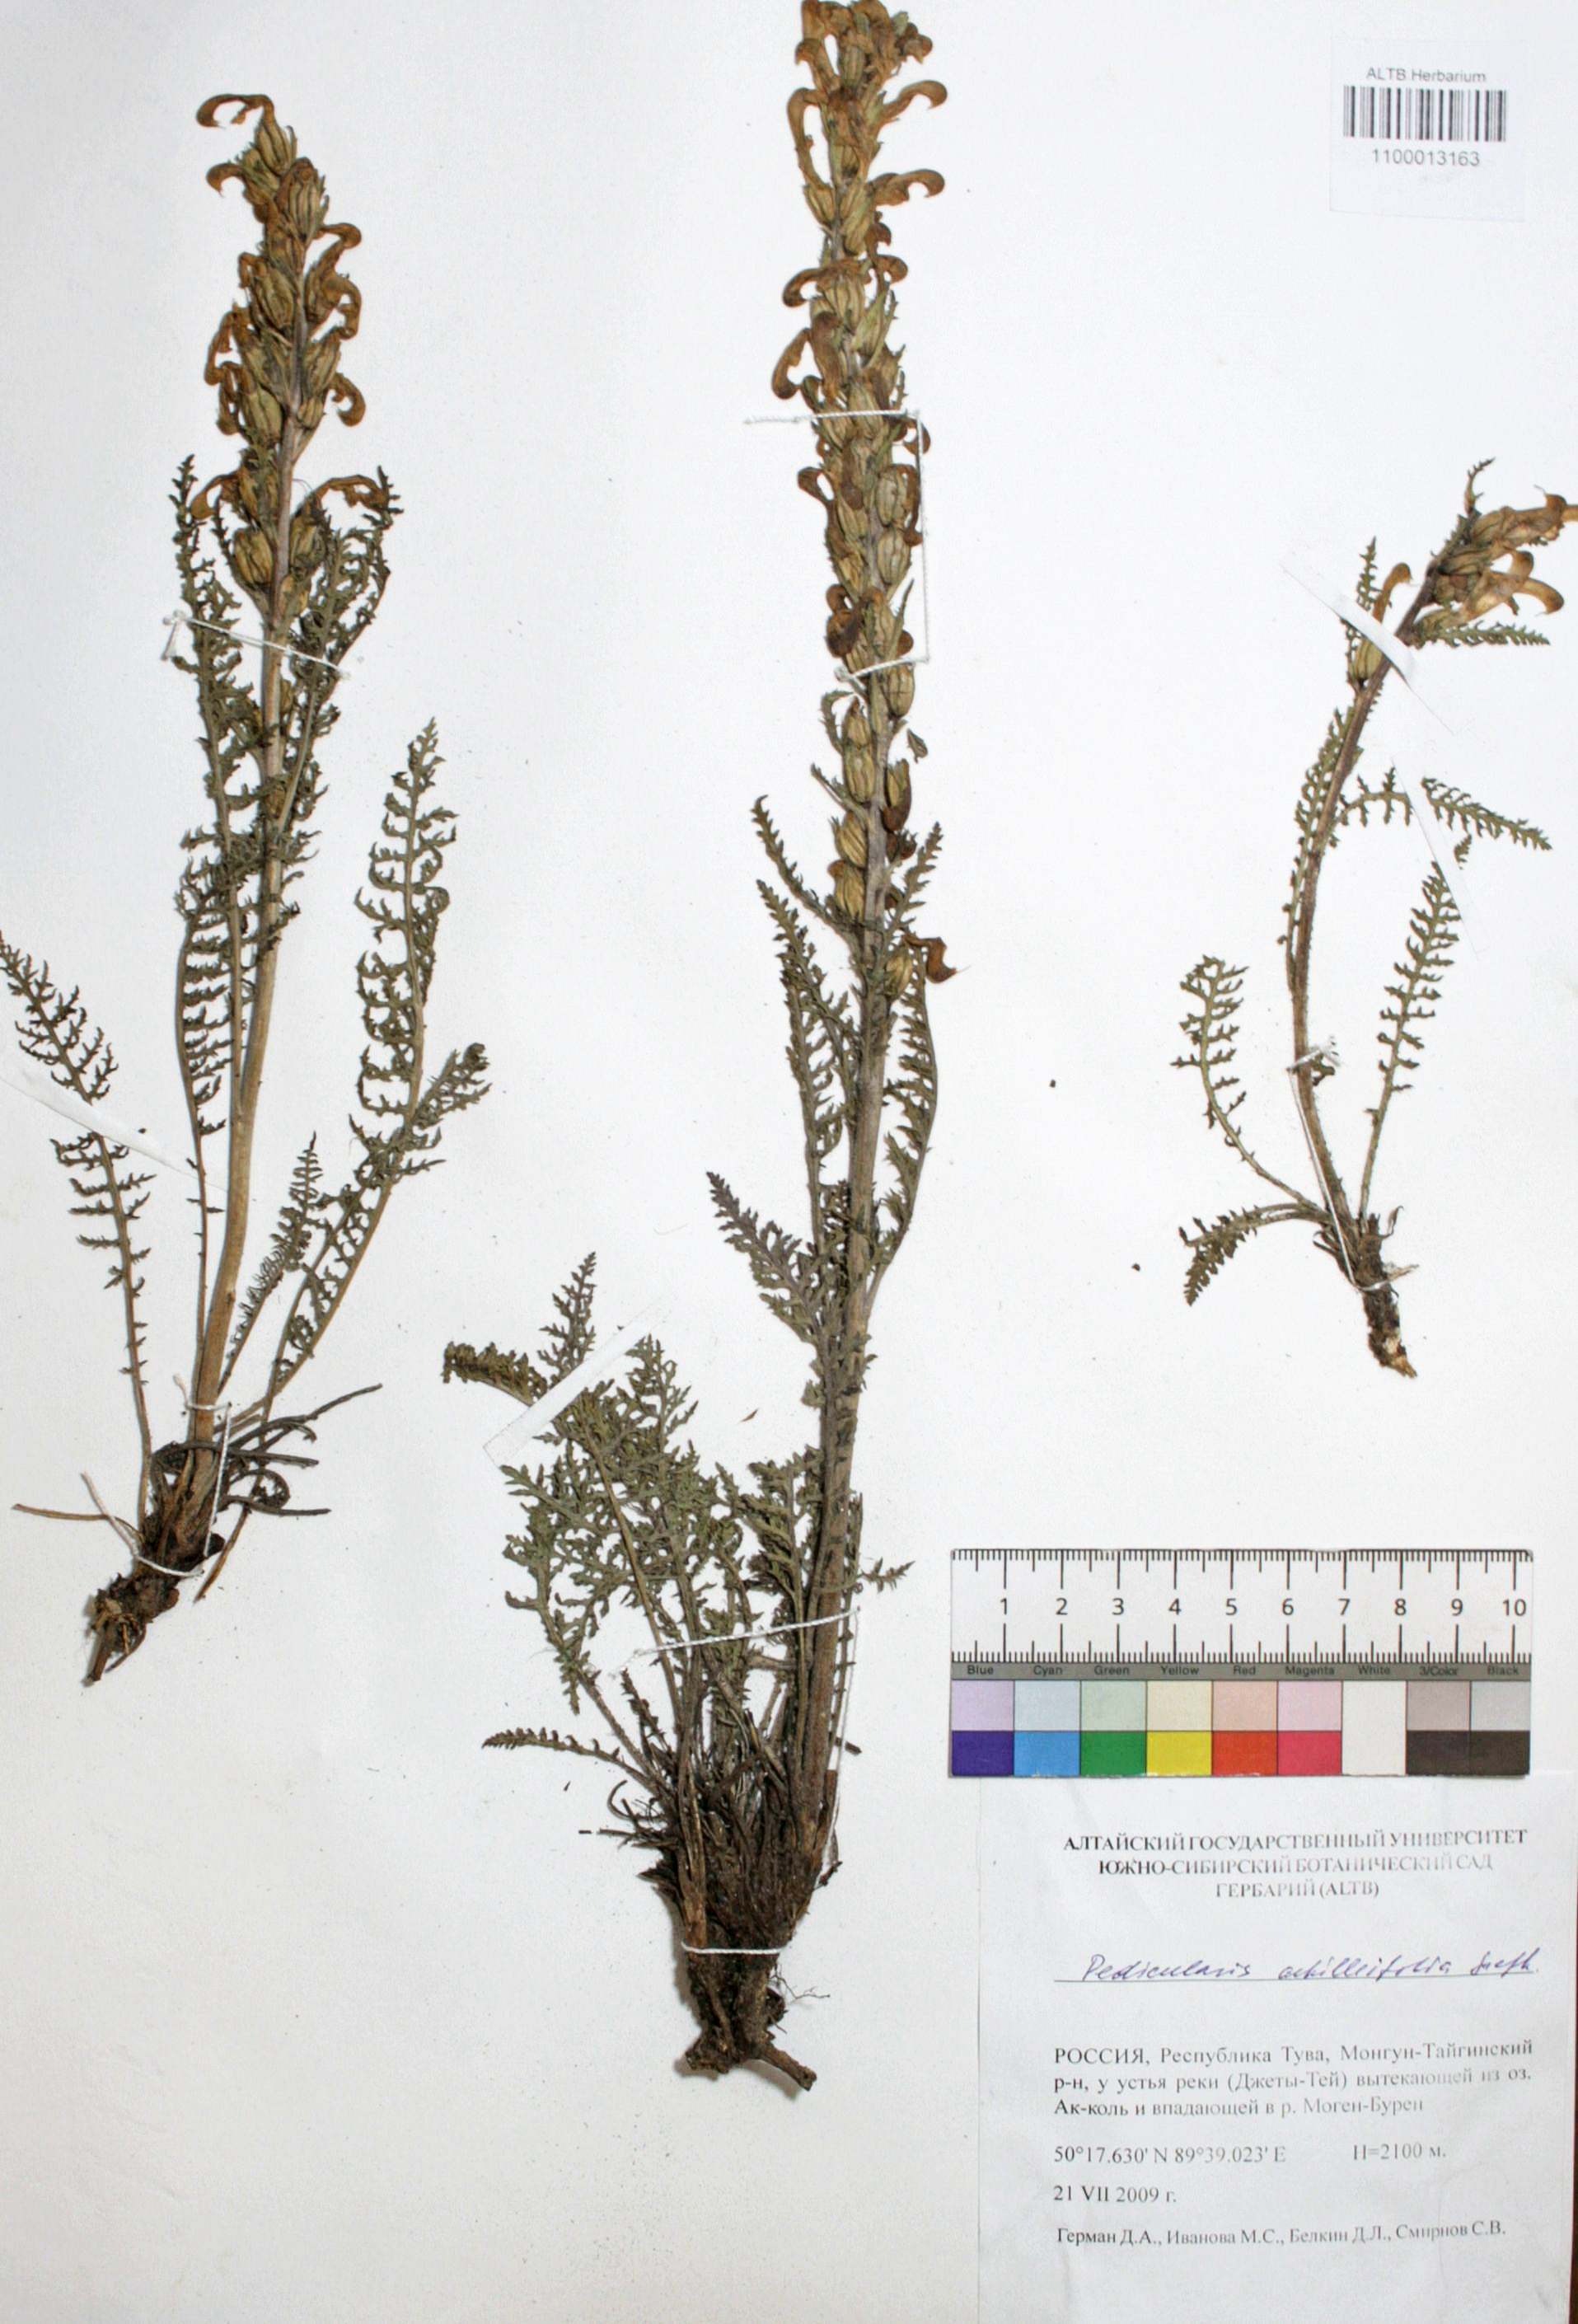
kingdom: Plantae
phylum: Tracheophyta
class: Magnoliopsida
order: Lamiales
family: Orobanchaceae
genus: Pedicularis
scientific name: Pedicularis achilleifolia
